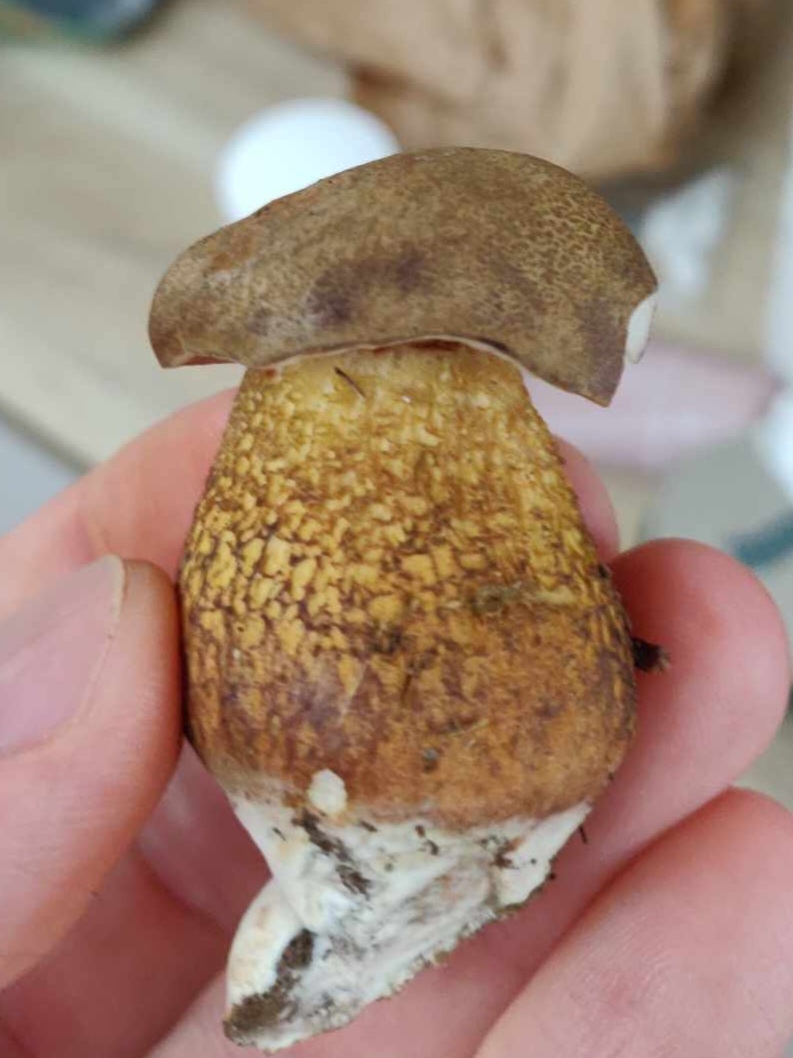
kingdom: Fungi
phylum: Basidiomycota
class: Agaricomycetes
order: Boletales
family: Boletaceae
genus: Tylopilus
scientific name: Tylopilus felleus
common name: galderørhat
